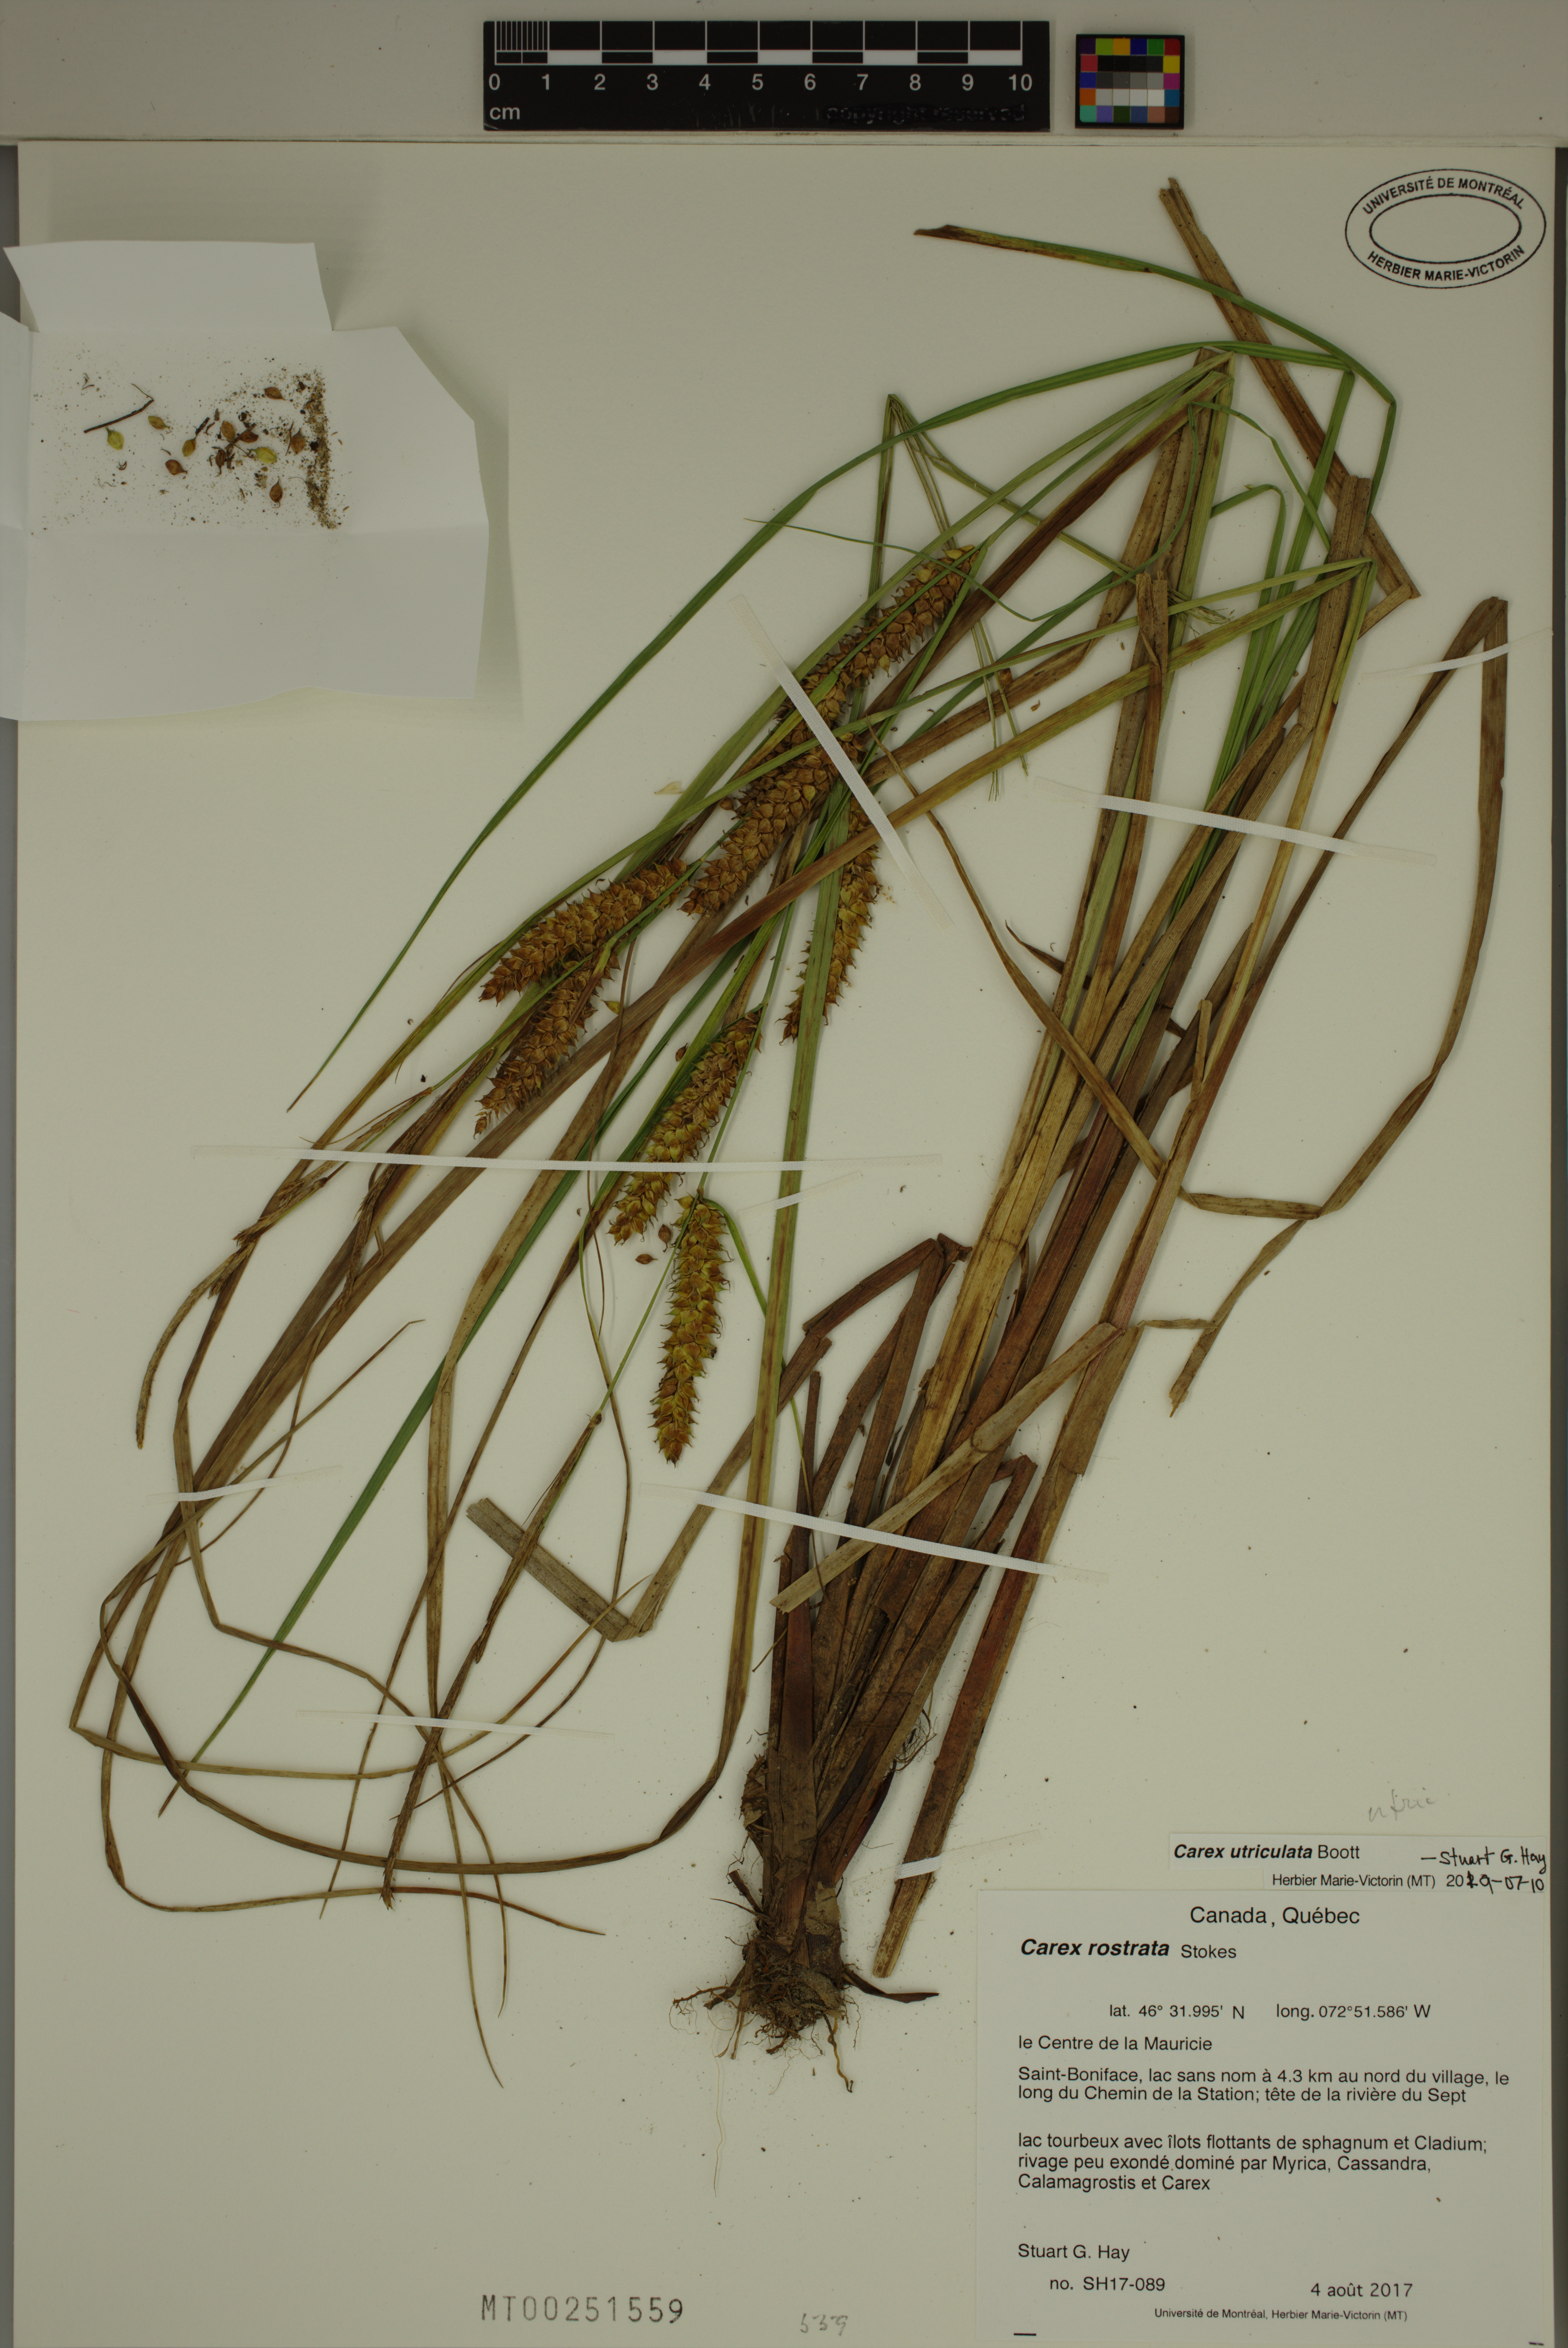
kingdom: Plantae
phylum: Tracheophyta
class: Liliopsida
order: Poales
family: Cyperaceae
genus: Carex
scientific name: Carex utriculata
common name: Beaked sedge
